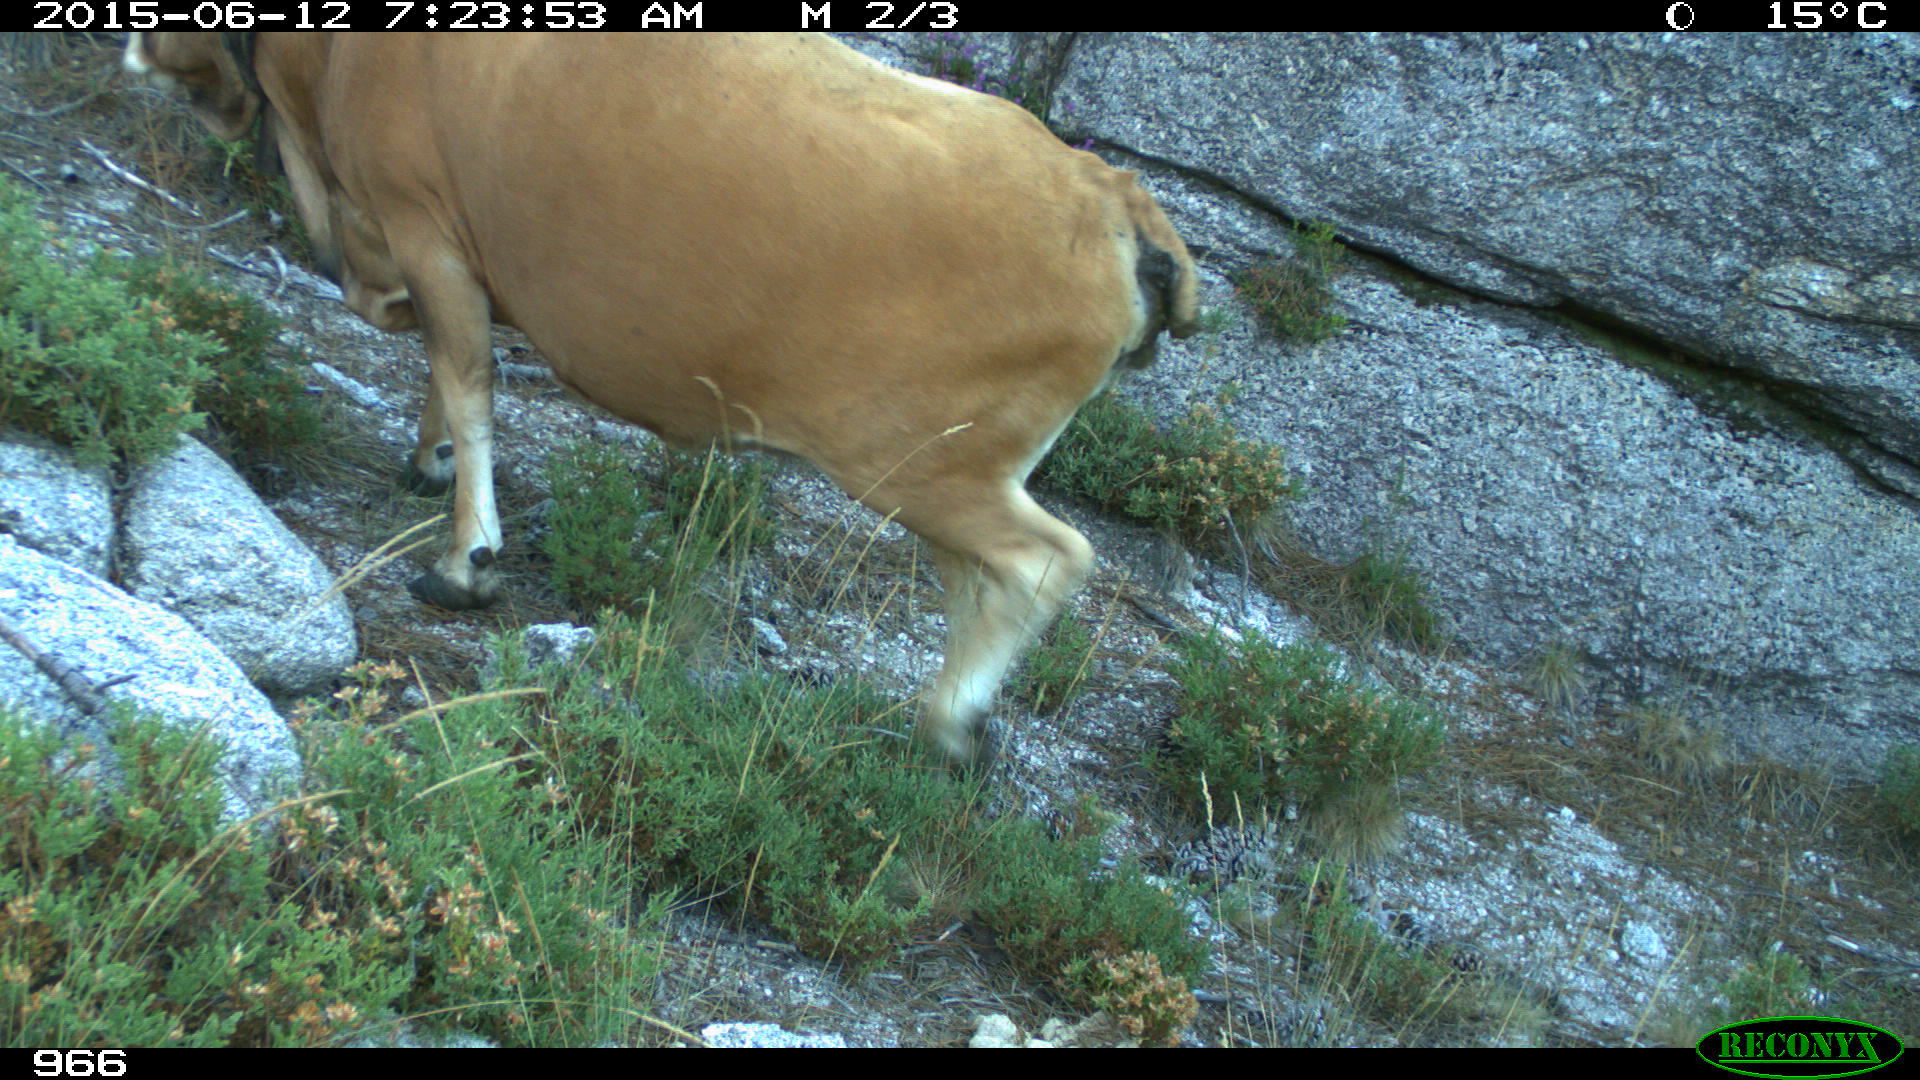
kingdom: Animalia
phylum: Chordata
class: Mammalia
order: Artiodactyla
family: Bovidae
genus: Bos
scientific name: Bos taurus
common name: Domesticated cattle
